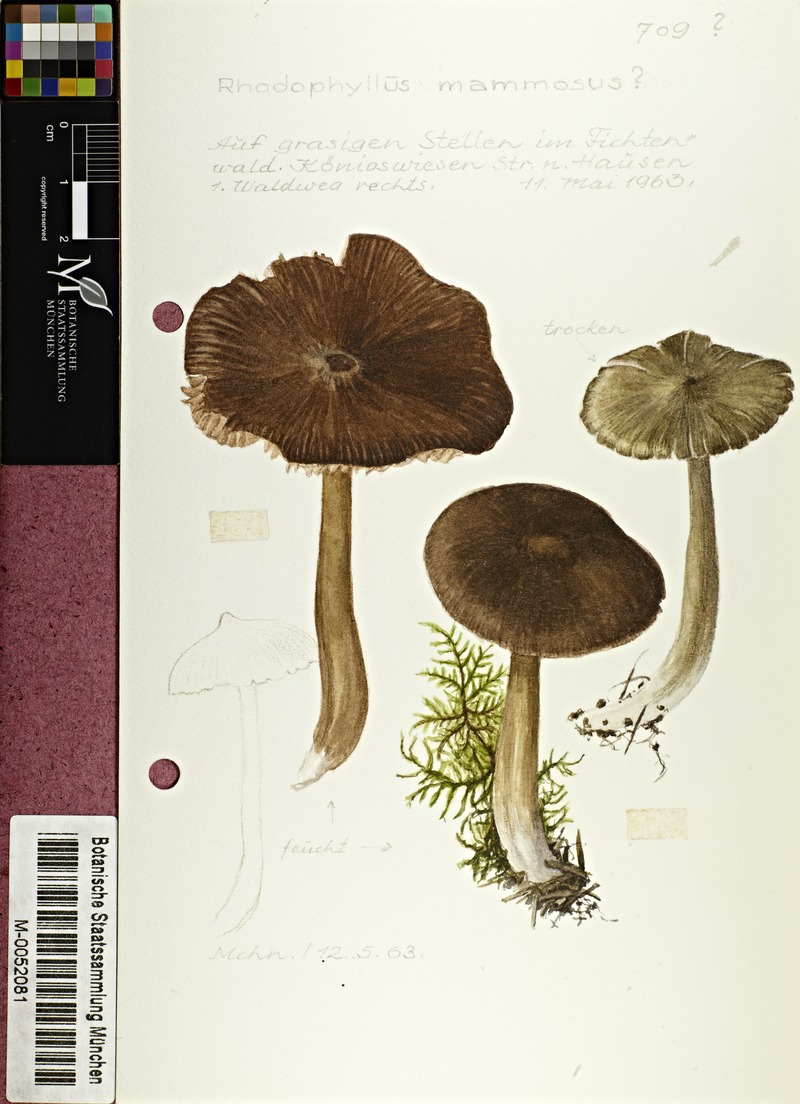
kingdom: Fungi
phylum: Basidiomycota
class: Agaricomycetes
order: Agaricales
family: Entolomataceae
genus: Entoloma
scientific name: Entoloma hirtipes
